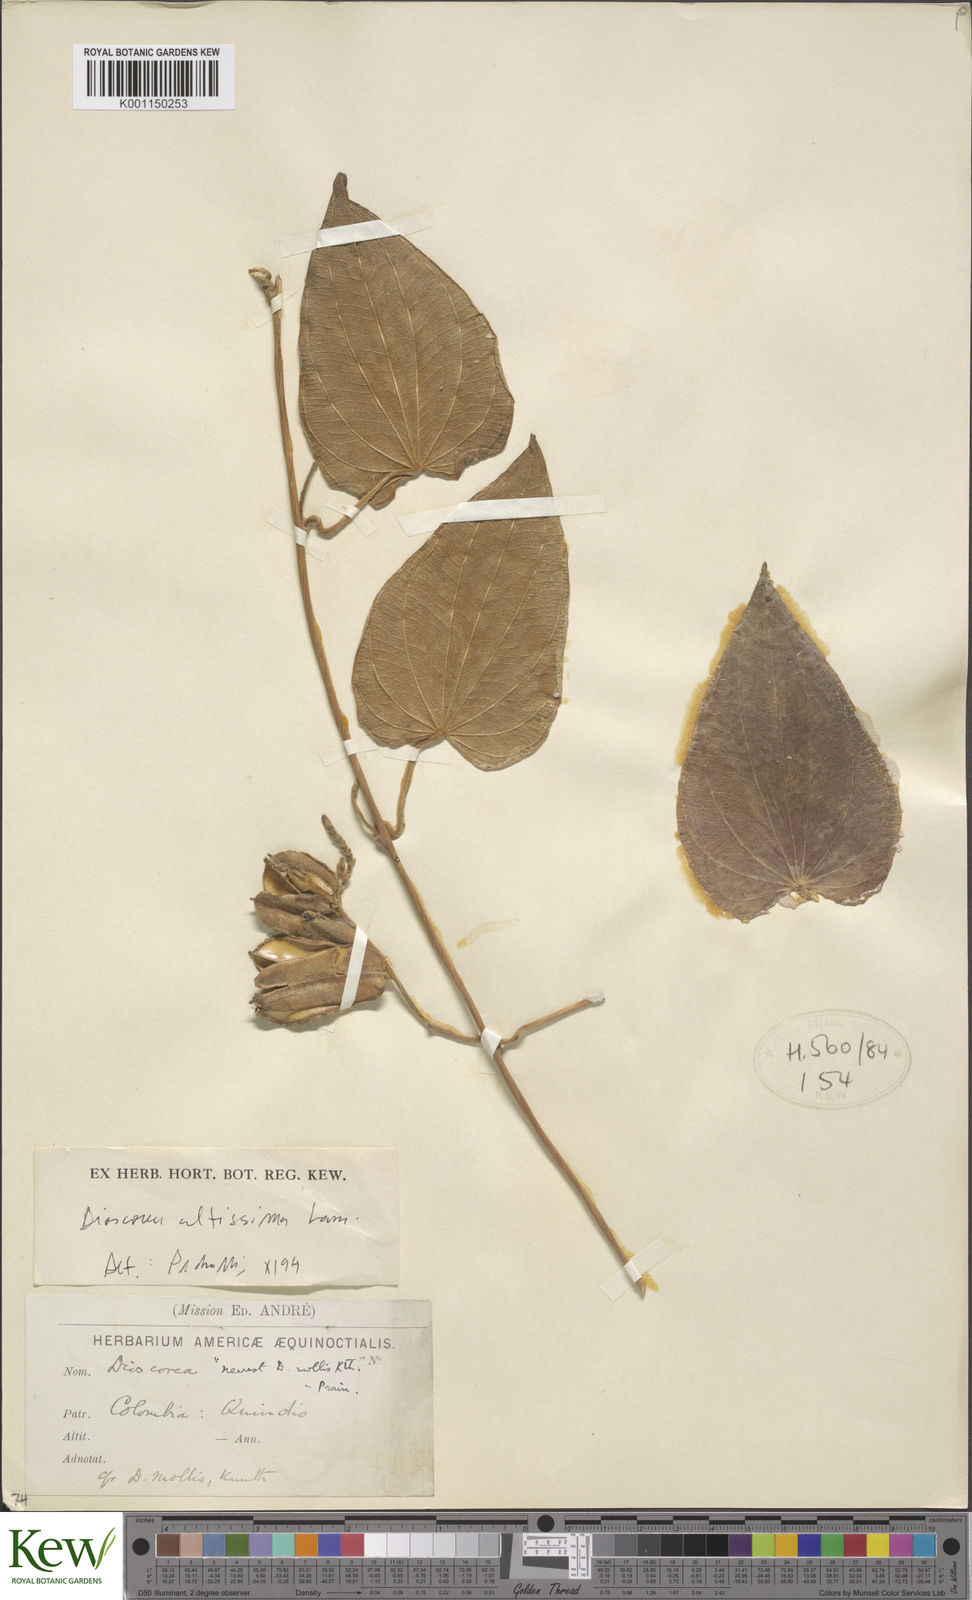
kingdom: Plantae
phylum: Tracheophyta
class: Liliopsida
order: Dioscoreales
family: Dioscoreaceae
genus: Dioscorea
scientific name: Dioscorea biplicata
